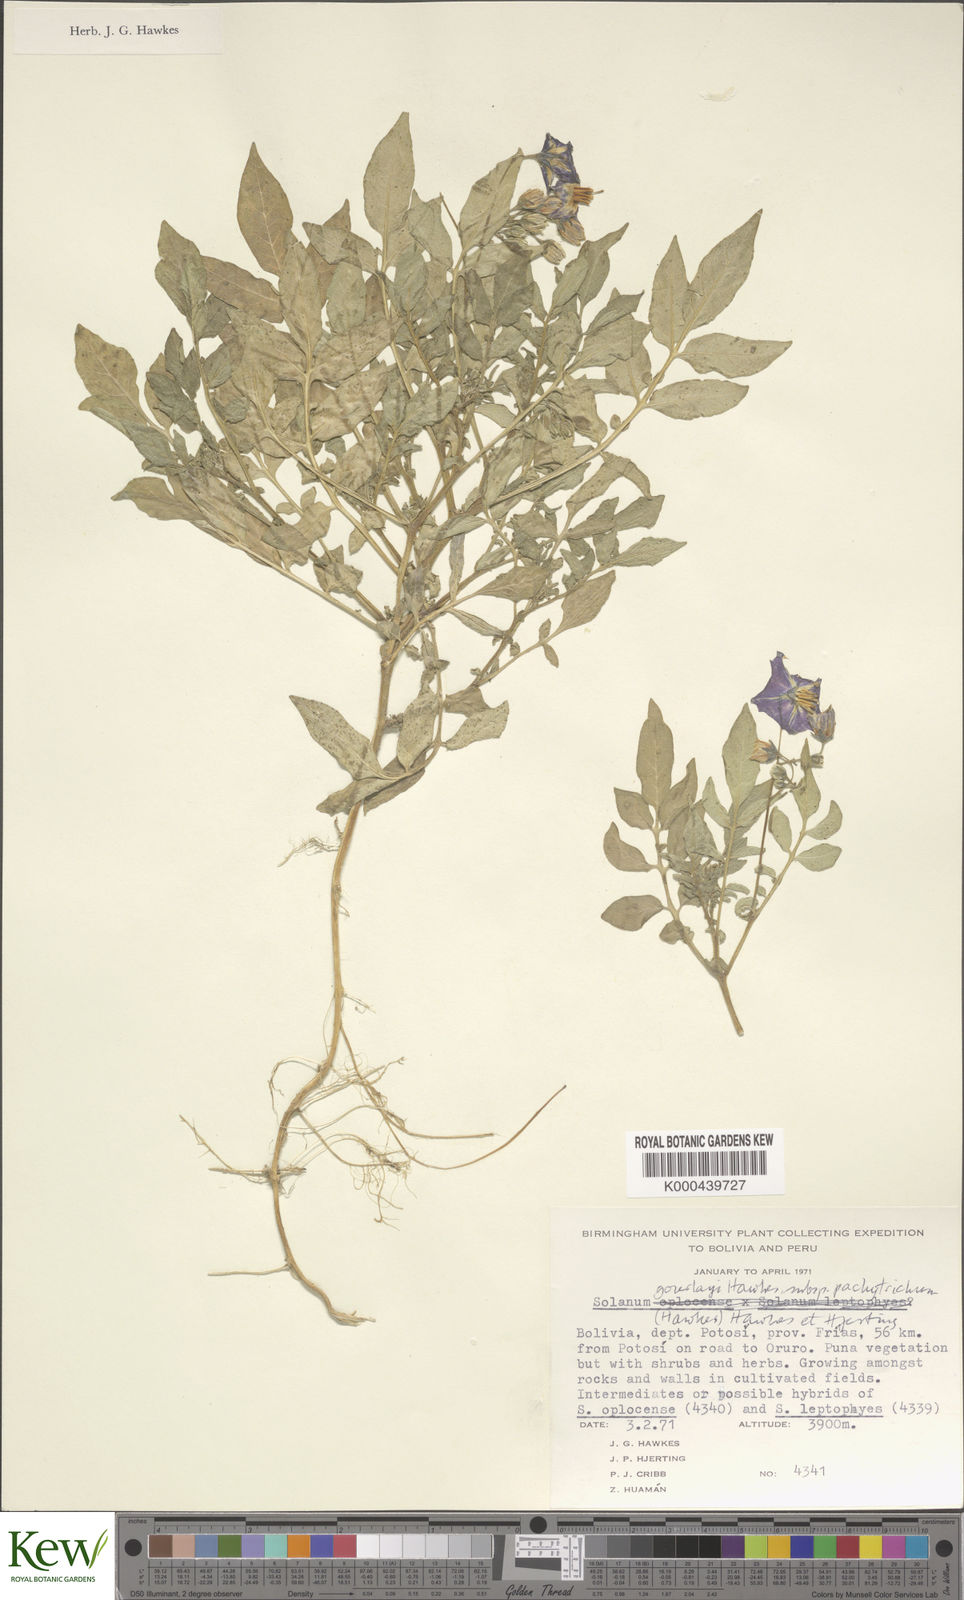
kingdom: Plantae
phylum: Tracheophyta
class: Magnoliopsida
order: Solanales
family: Solanaceae
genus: Solanum
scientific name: Solanum brevicaule
